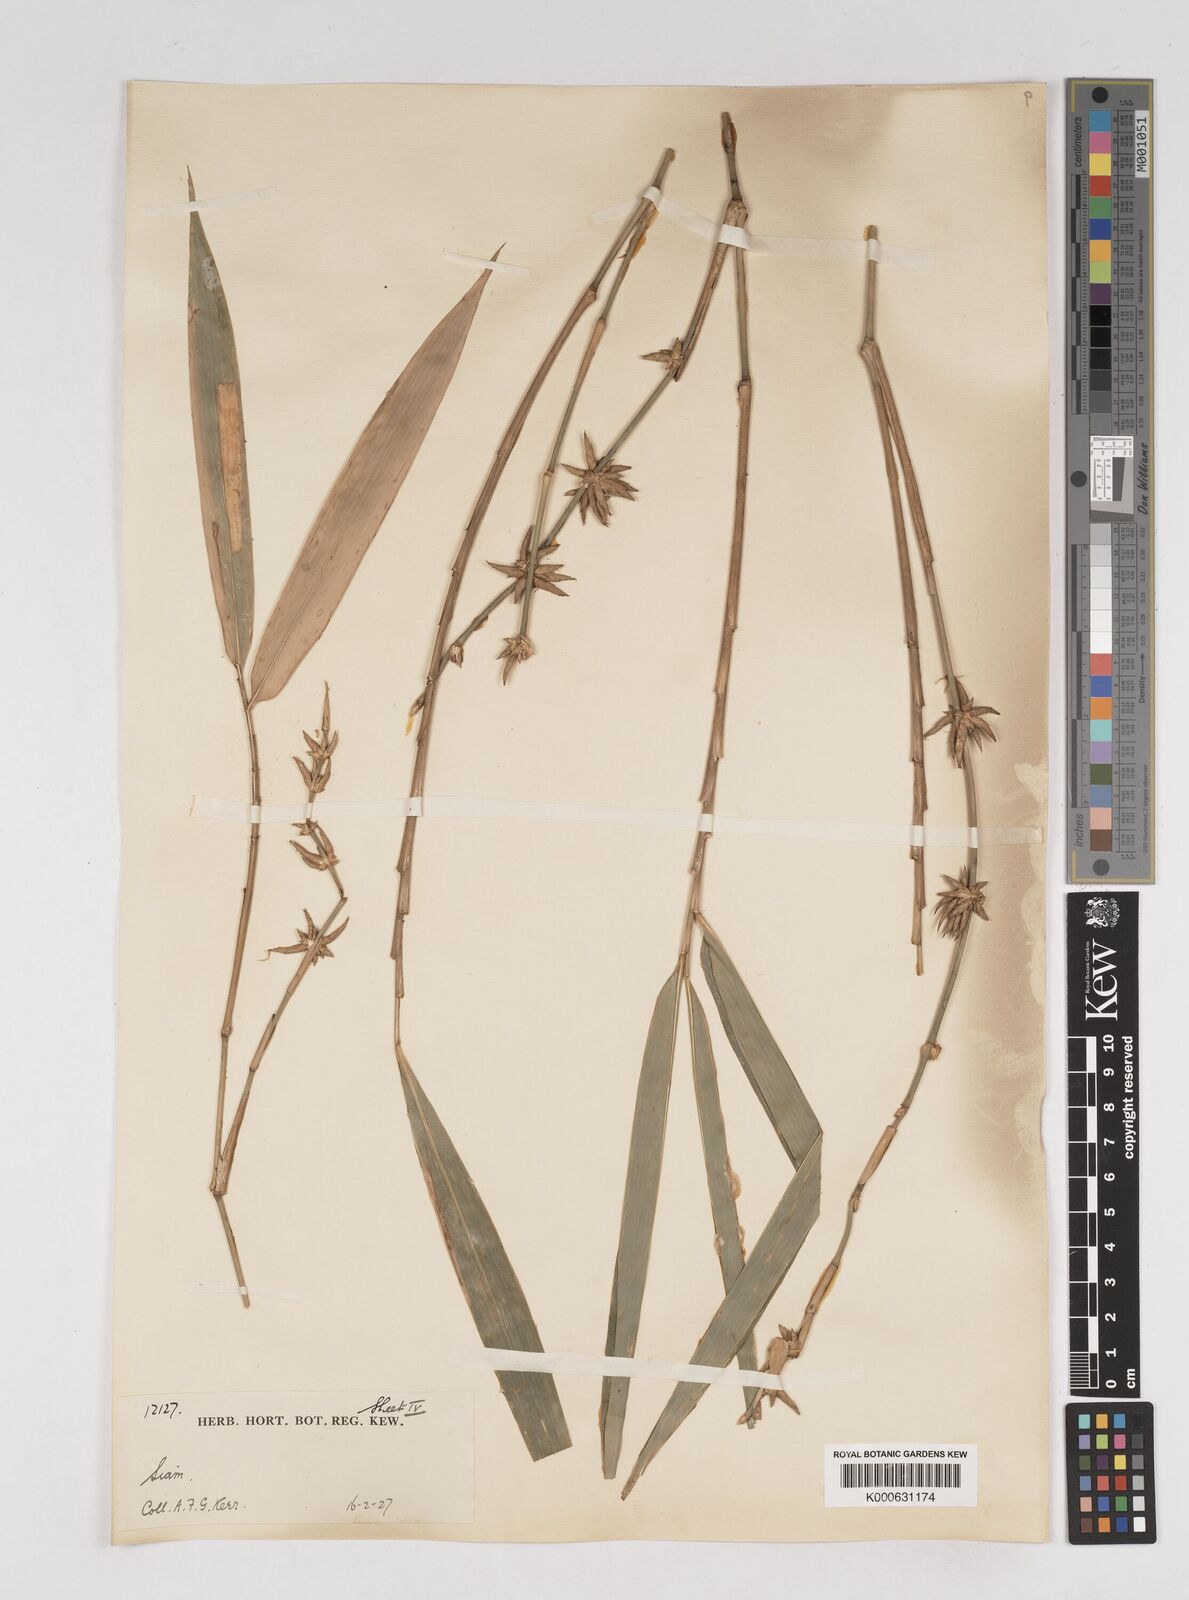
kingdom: Plantae
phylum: Tracheophyta
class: Liliopsida
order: Poales
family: Poaceae
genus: Gigantochloa
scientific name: Gigantochloa
